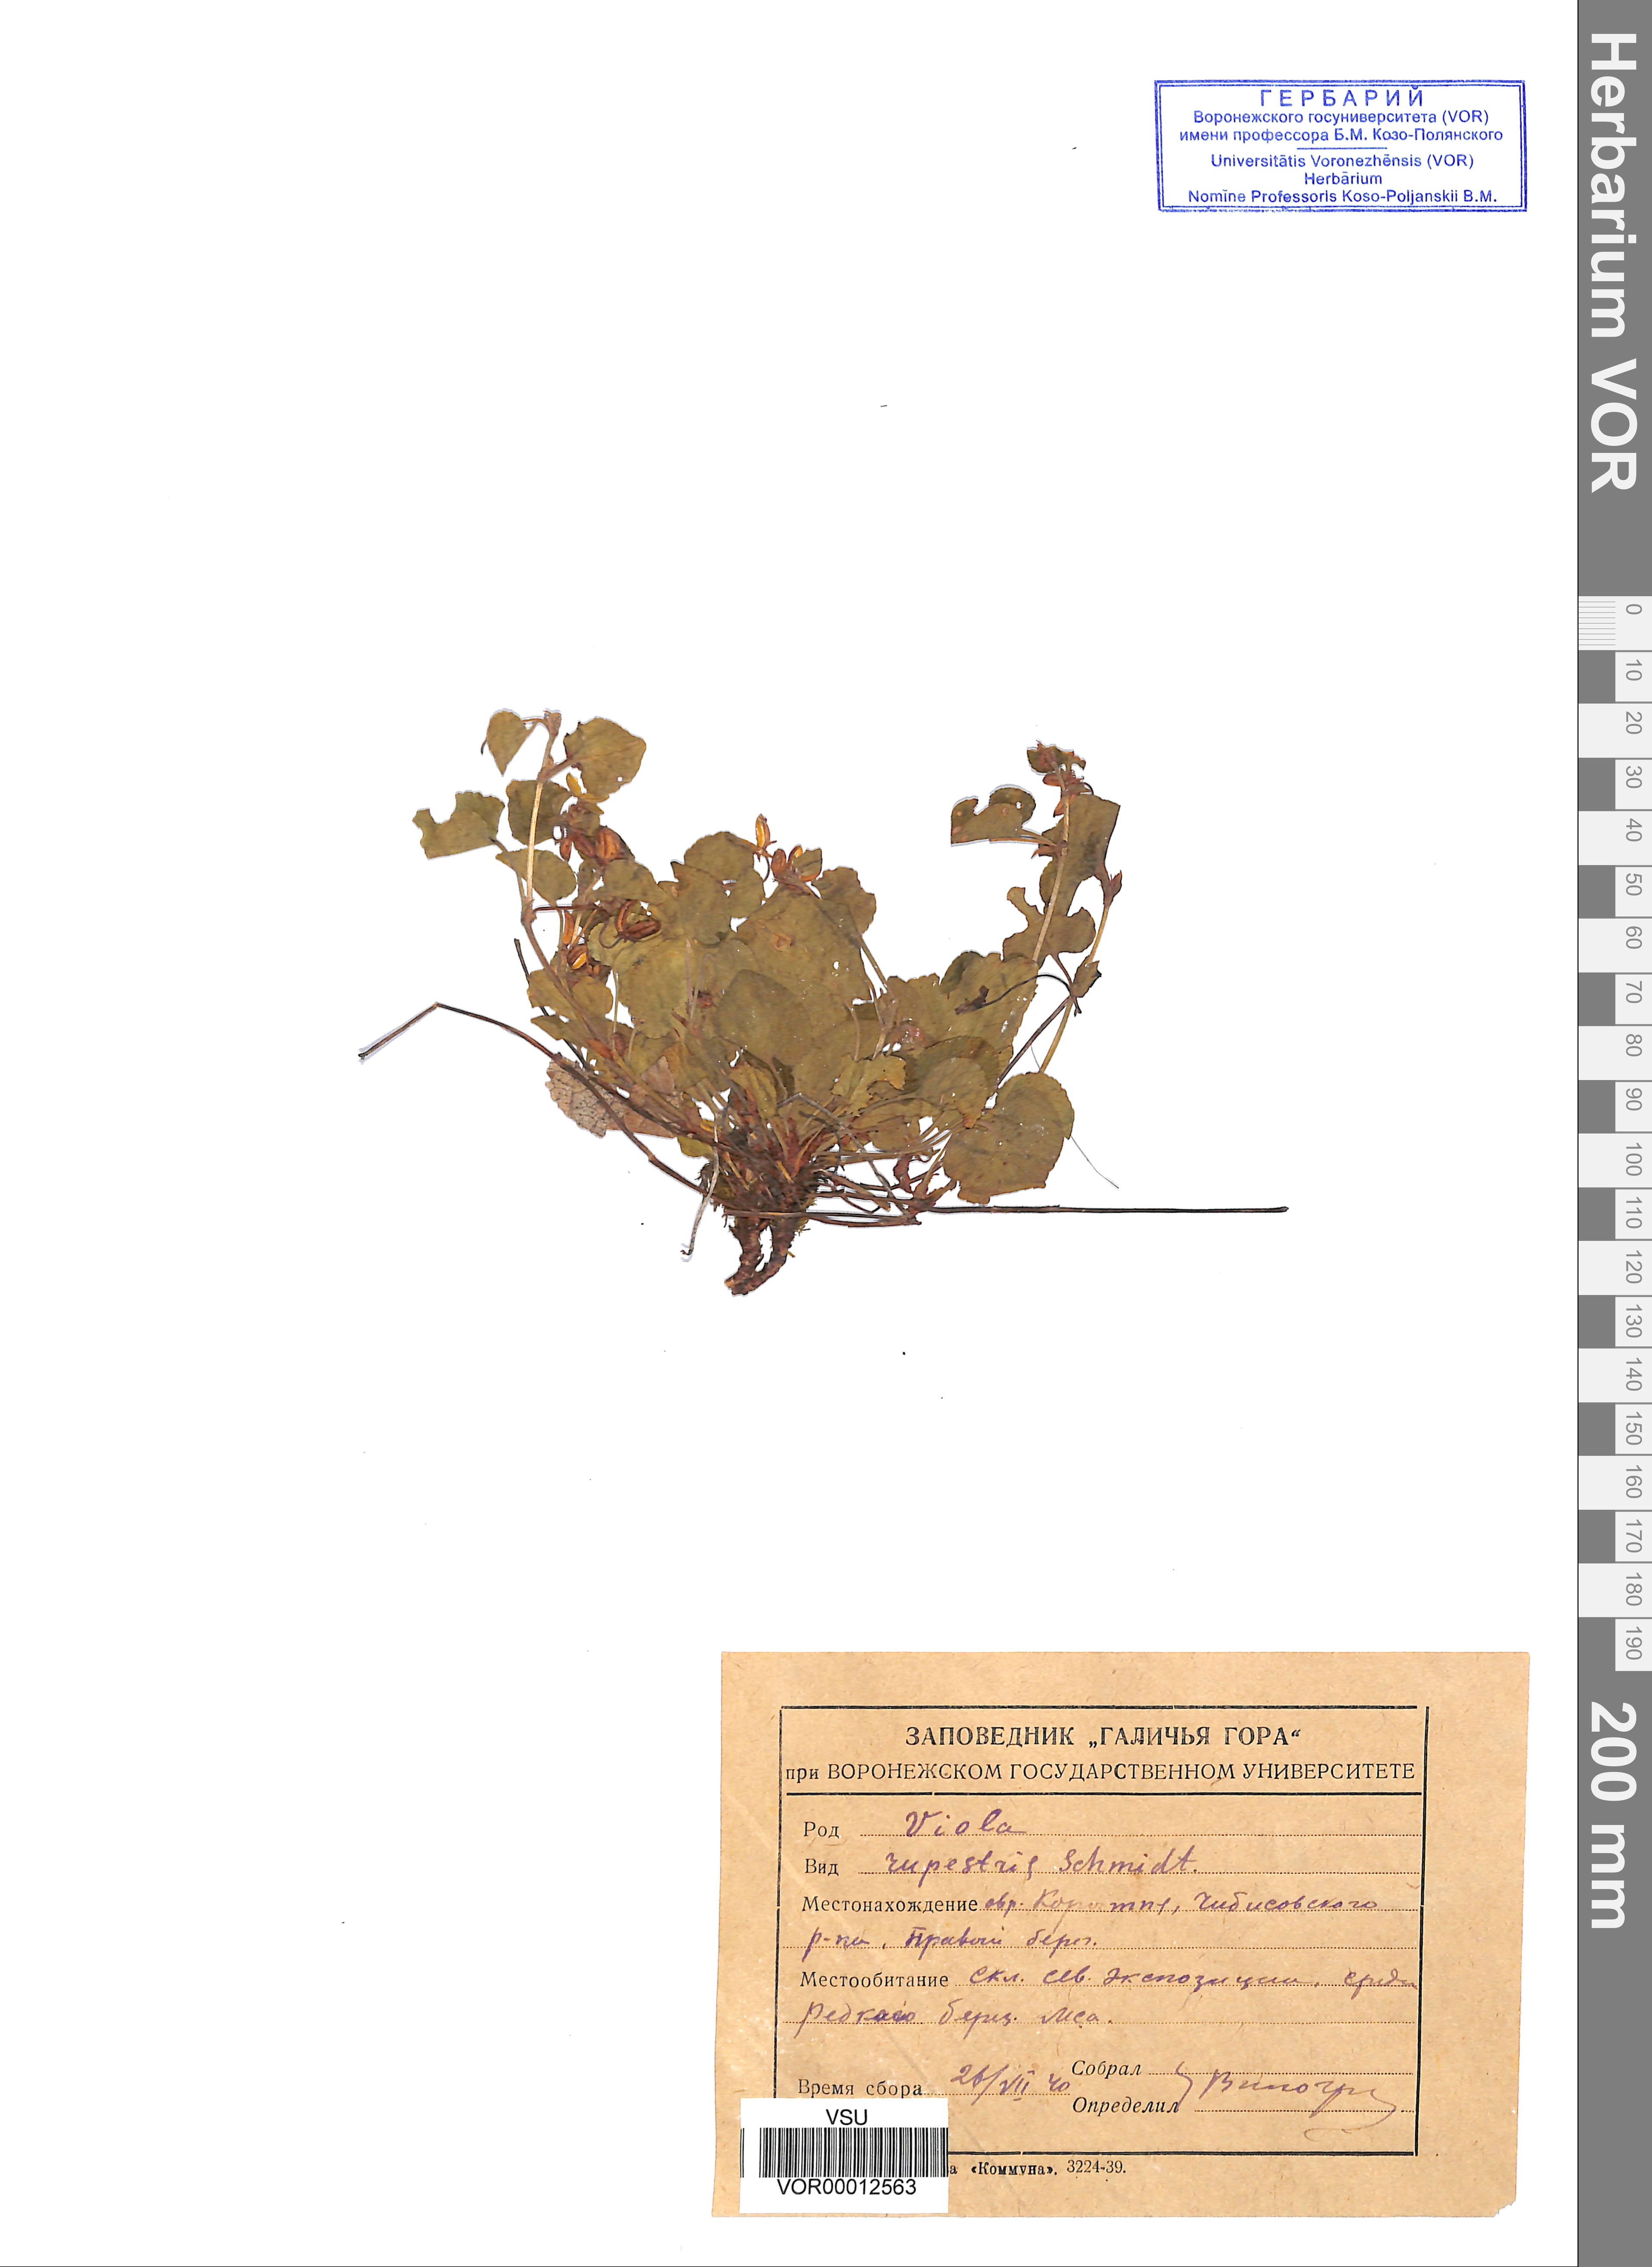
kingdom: Plantae
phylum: Tracheophyta
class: Magnoliopsida
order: Malpighiales
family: Violaceae
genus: Viola
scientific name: Viola rupestris
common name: Teesdale violet
